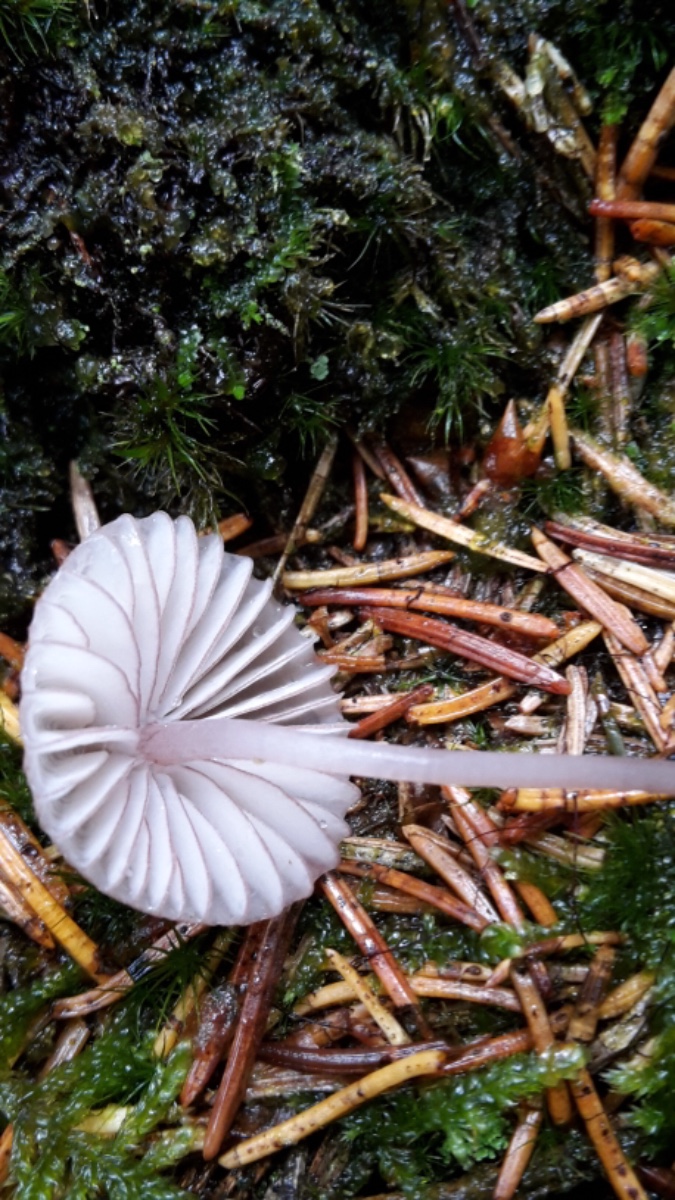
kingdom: Fungi
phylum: Basidiomycota
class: Agaricomycetes
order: Agaricales
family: Mycenaceae
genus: Mycena
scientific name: Mycena rubromarginata
